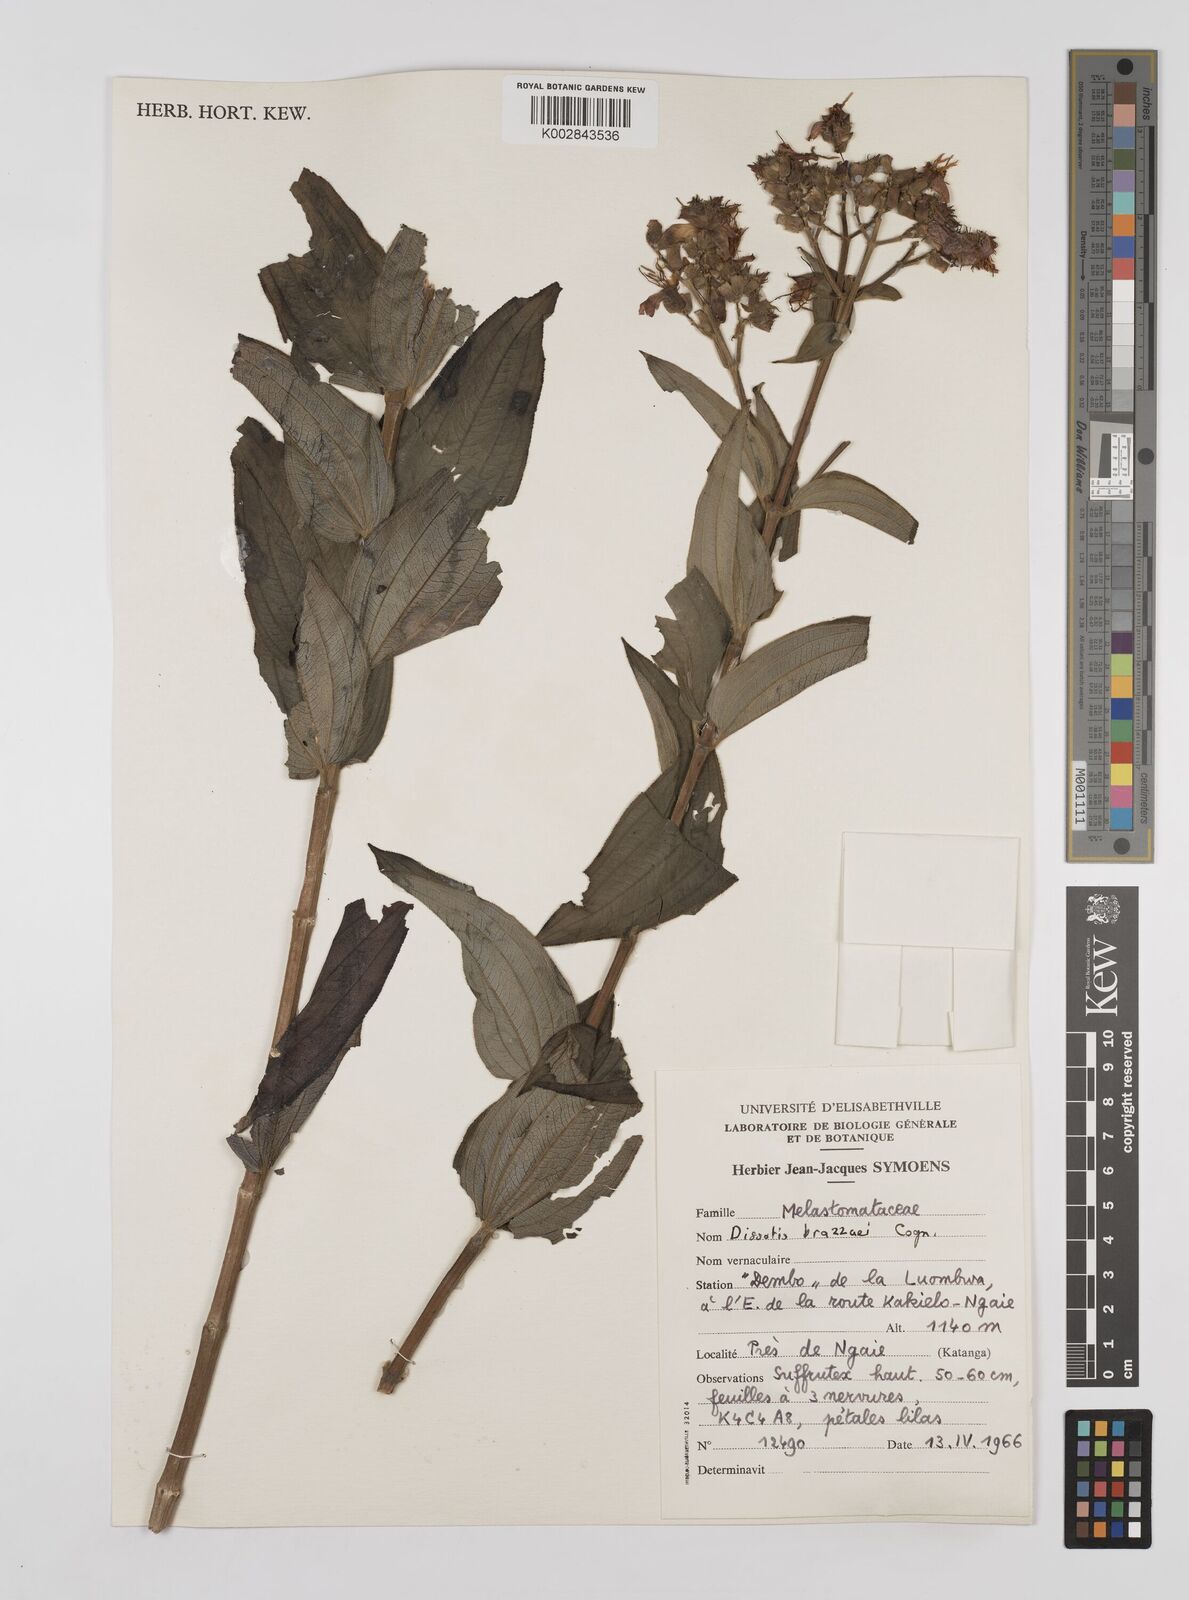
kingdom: Plantae
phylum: Tracheophyta
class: Magnoliopsida
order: Myrtales
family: Melastomataceae
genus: Dupineta
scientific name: Dupineta brazzae
